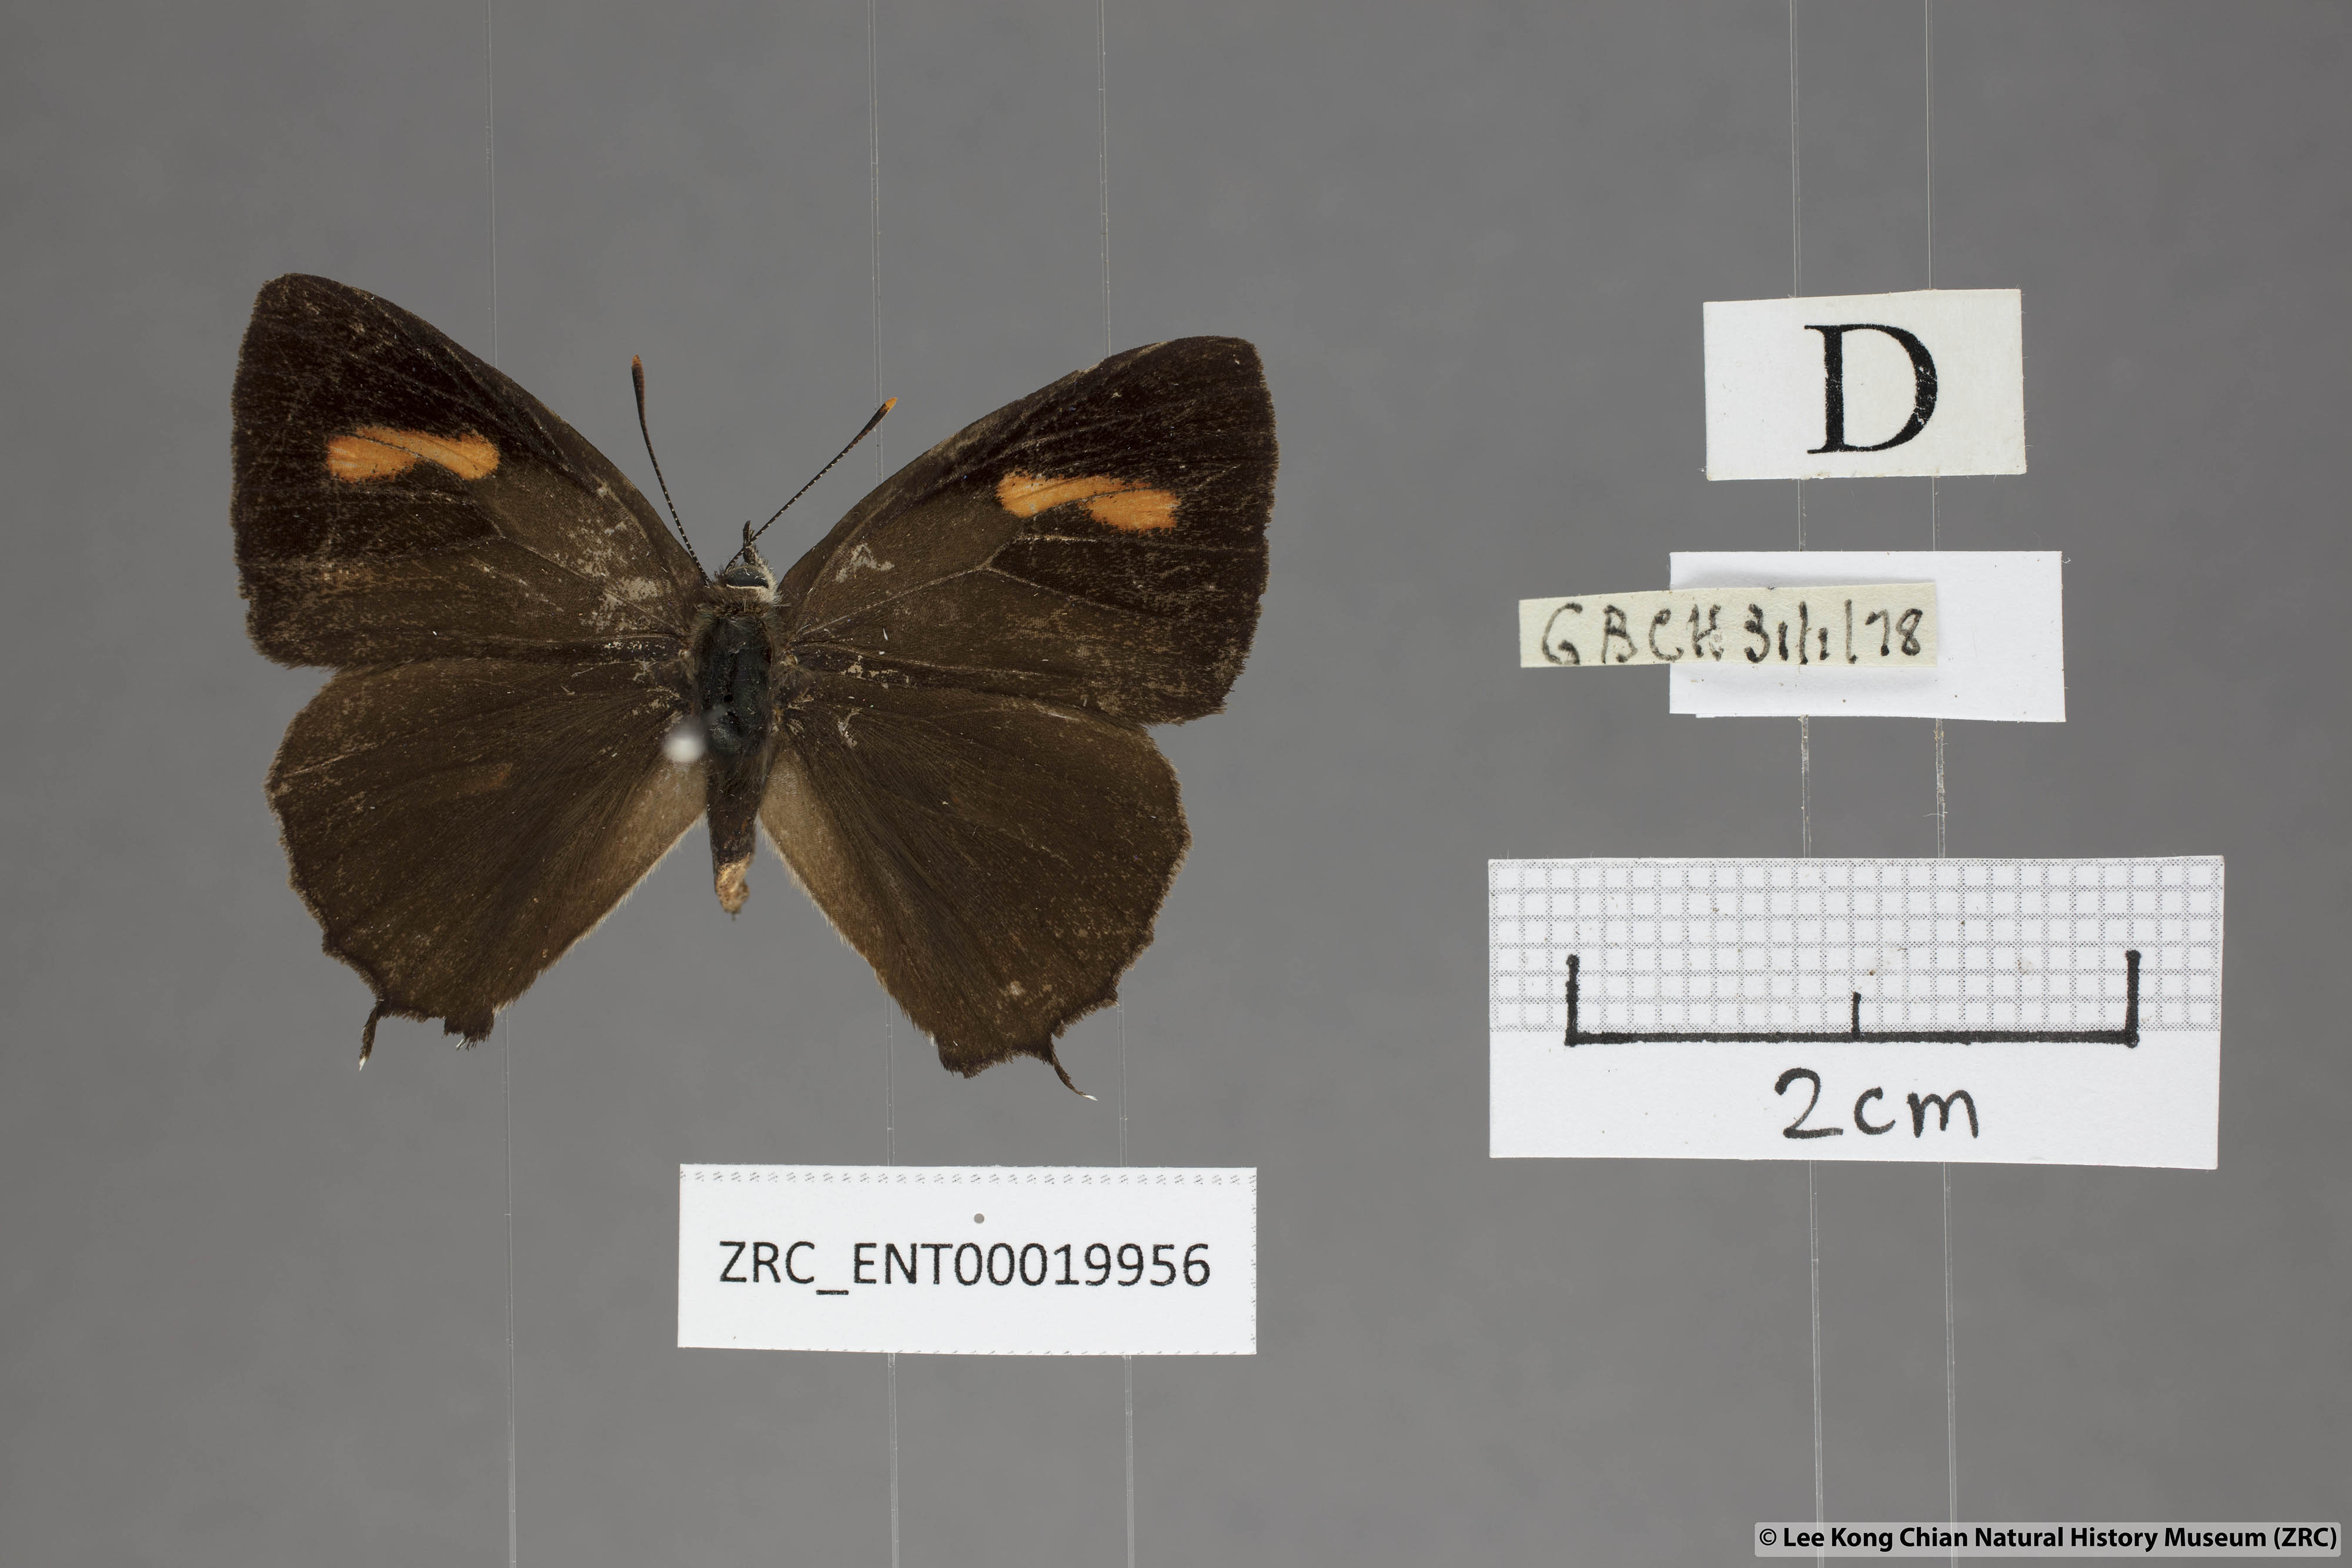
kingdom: Animalia
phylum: Arthropoda
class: Insecta
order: Lepidoptera
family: Lycaenidae
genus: Austrozephyrus
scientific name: Austrozephyrus absolon
